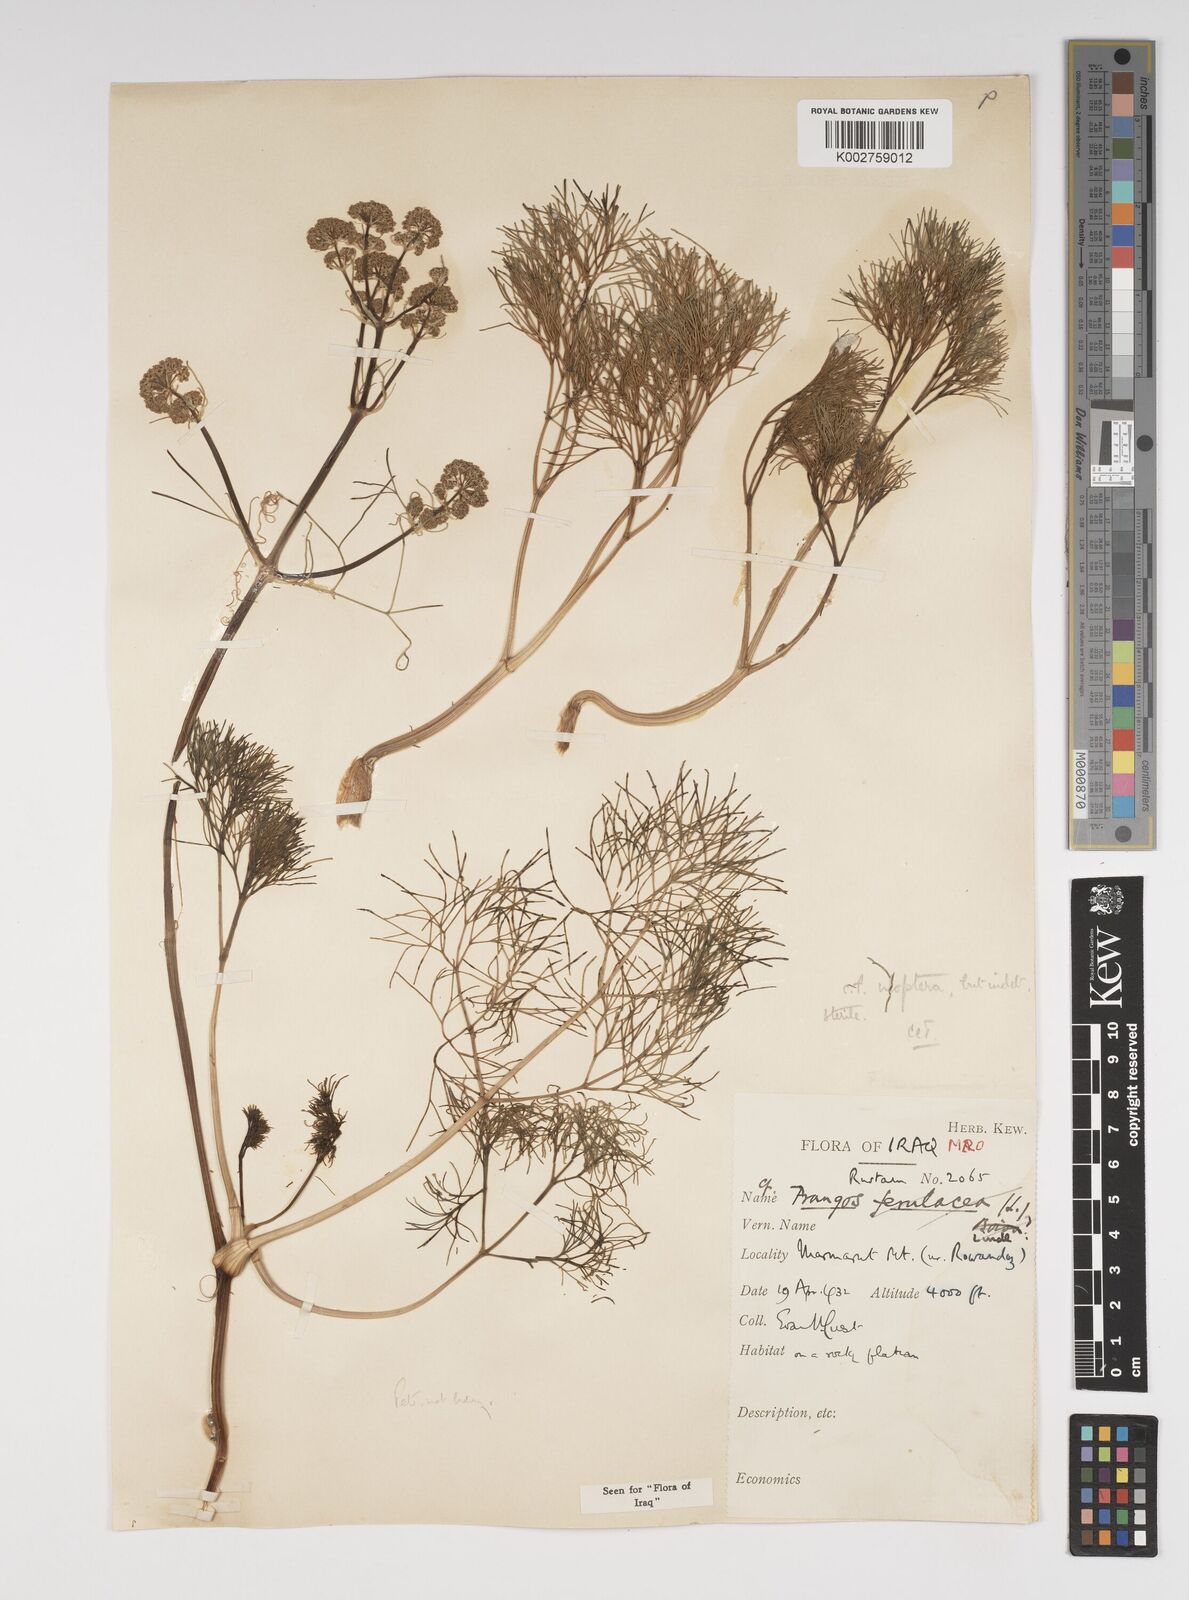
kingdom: Plantae
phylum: Tracheophyta
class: Magnoliopsida
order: Apiales
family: Apiaceae
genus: Prangos
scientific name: Prangos uloptera
